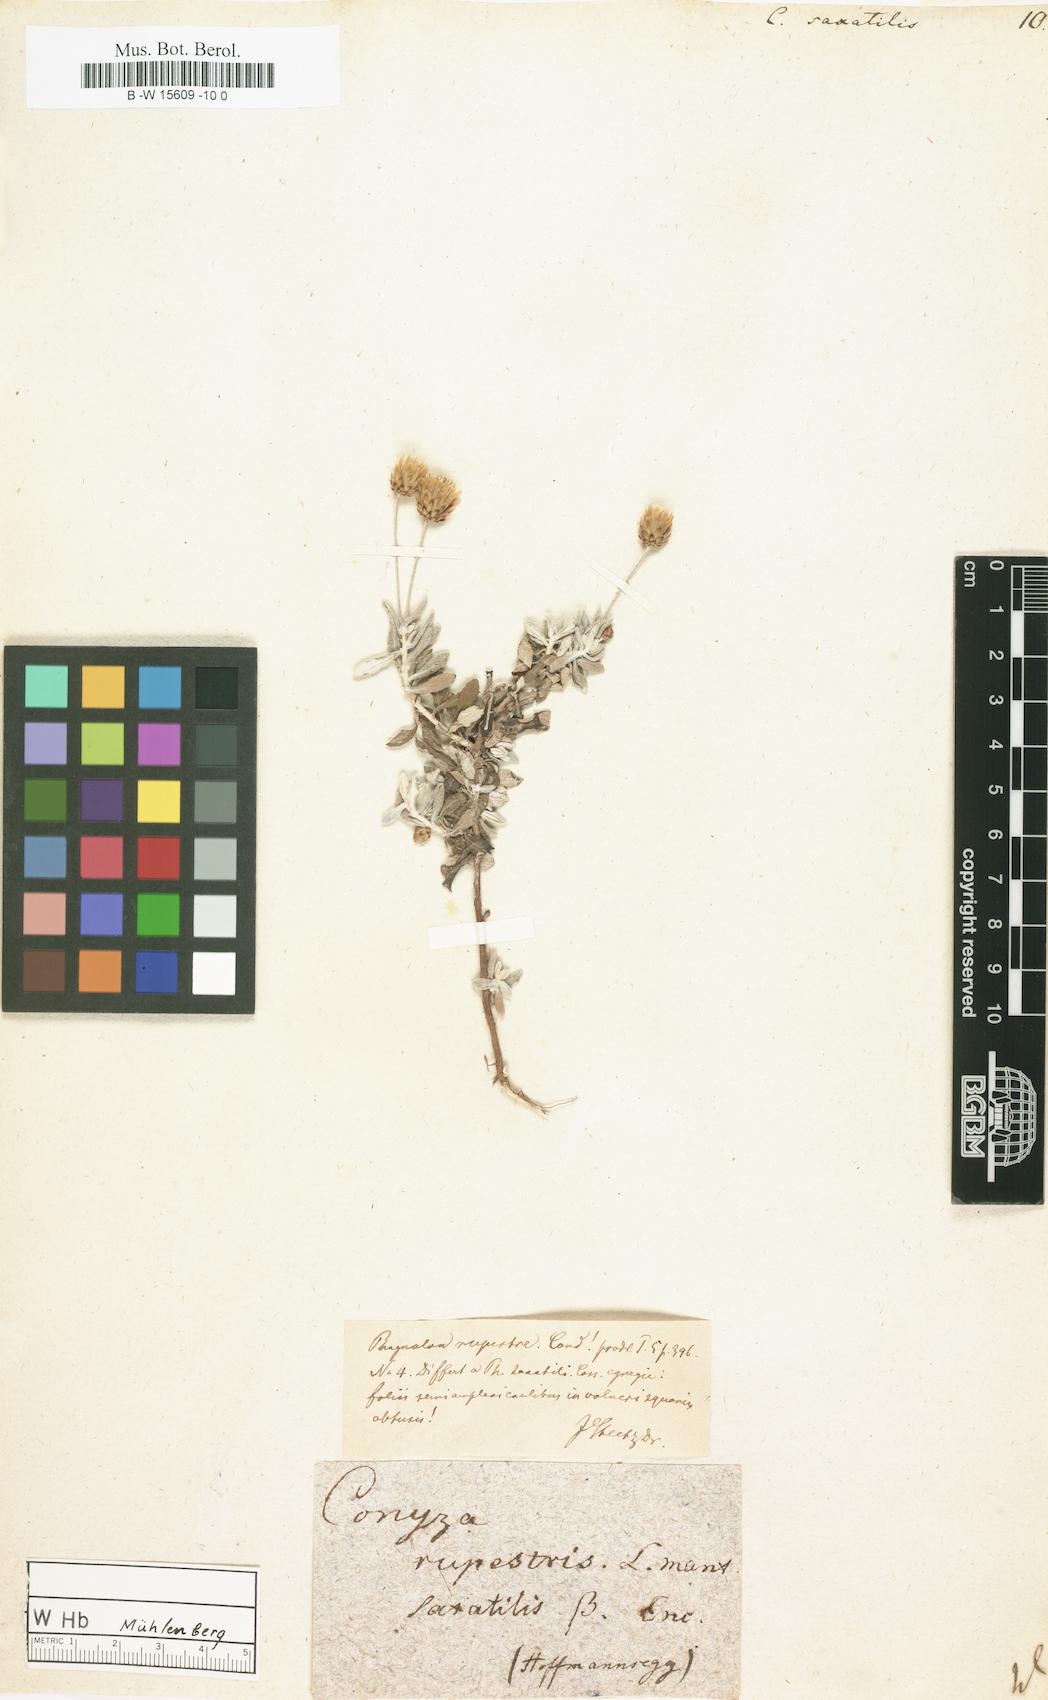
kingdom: Plantae
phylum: Tracheophyta
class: Magnoliopsida
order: Asterales
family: Asteraceae
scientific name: Asteraceae
